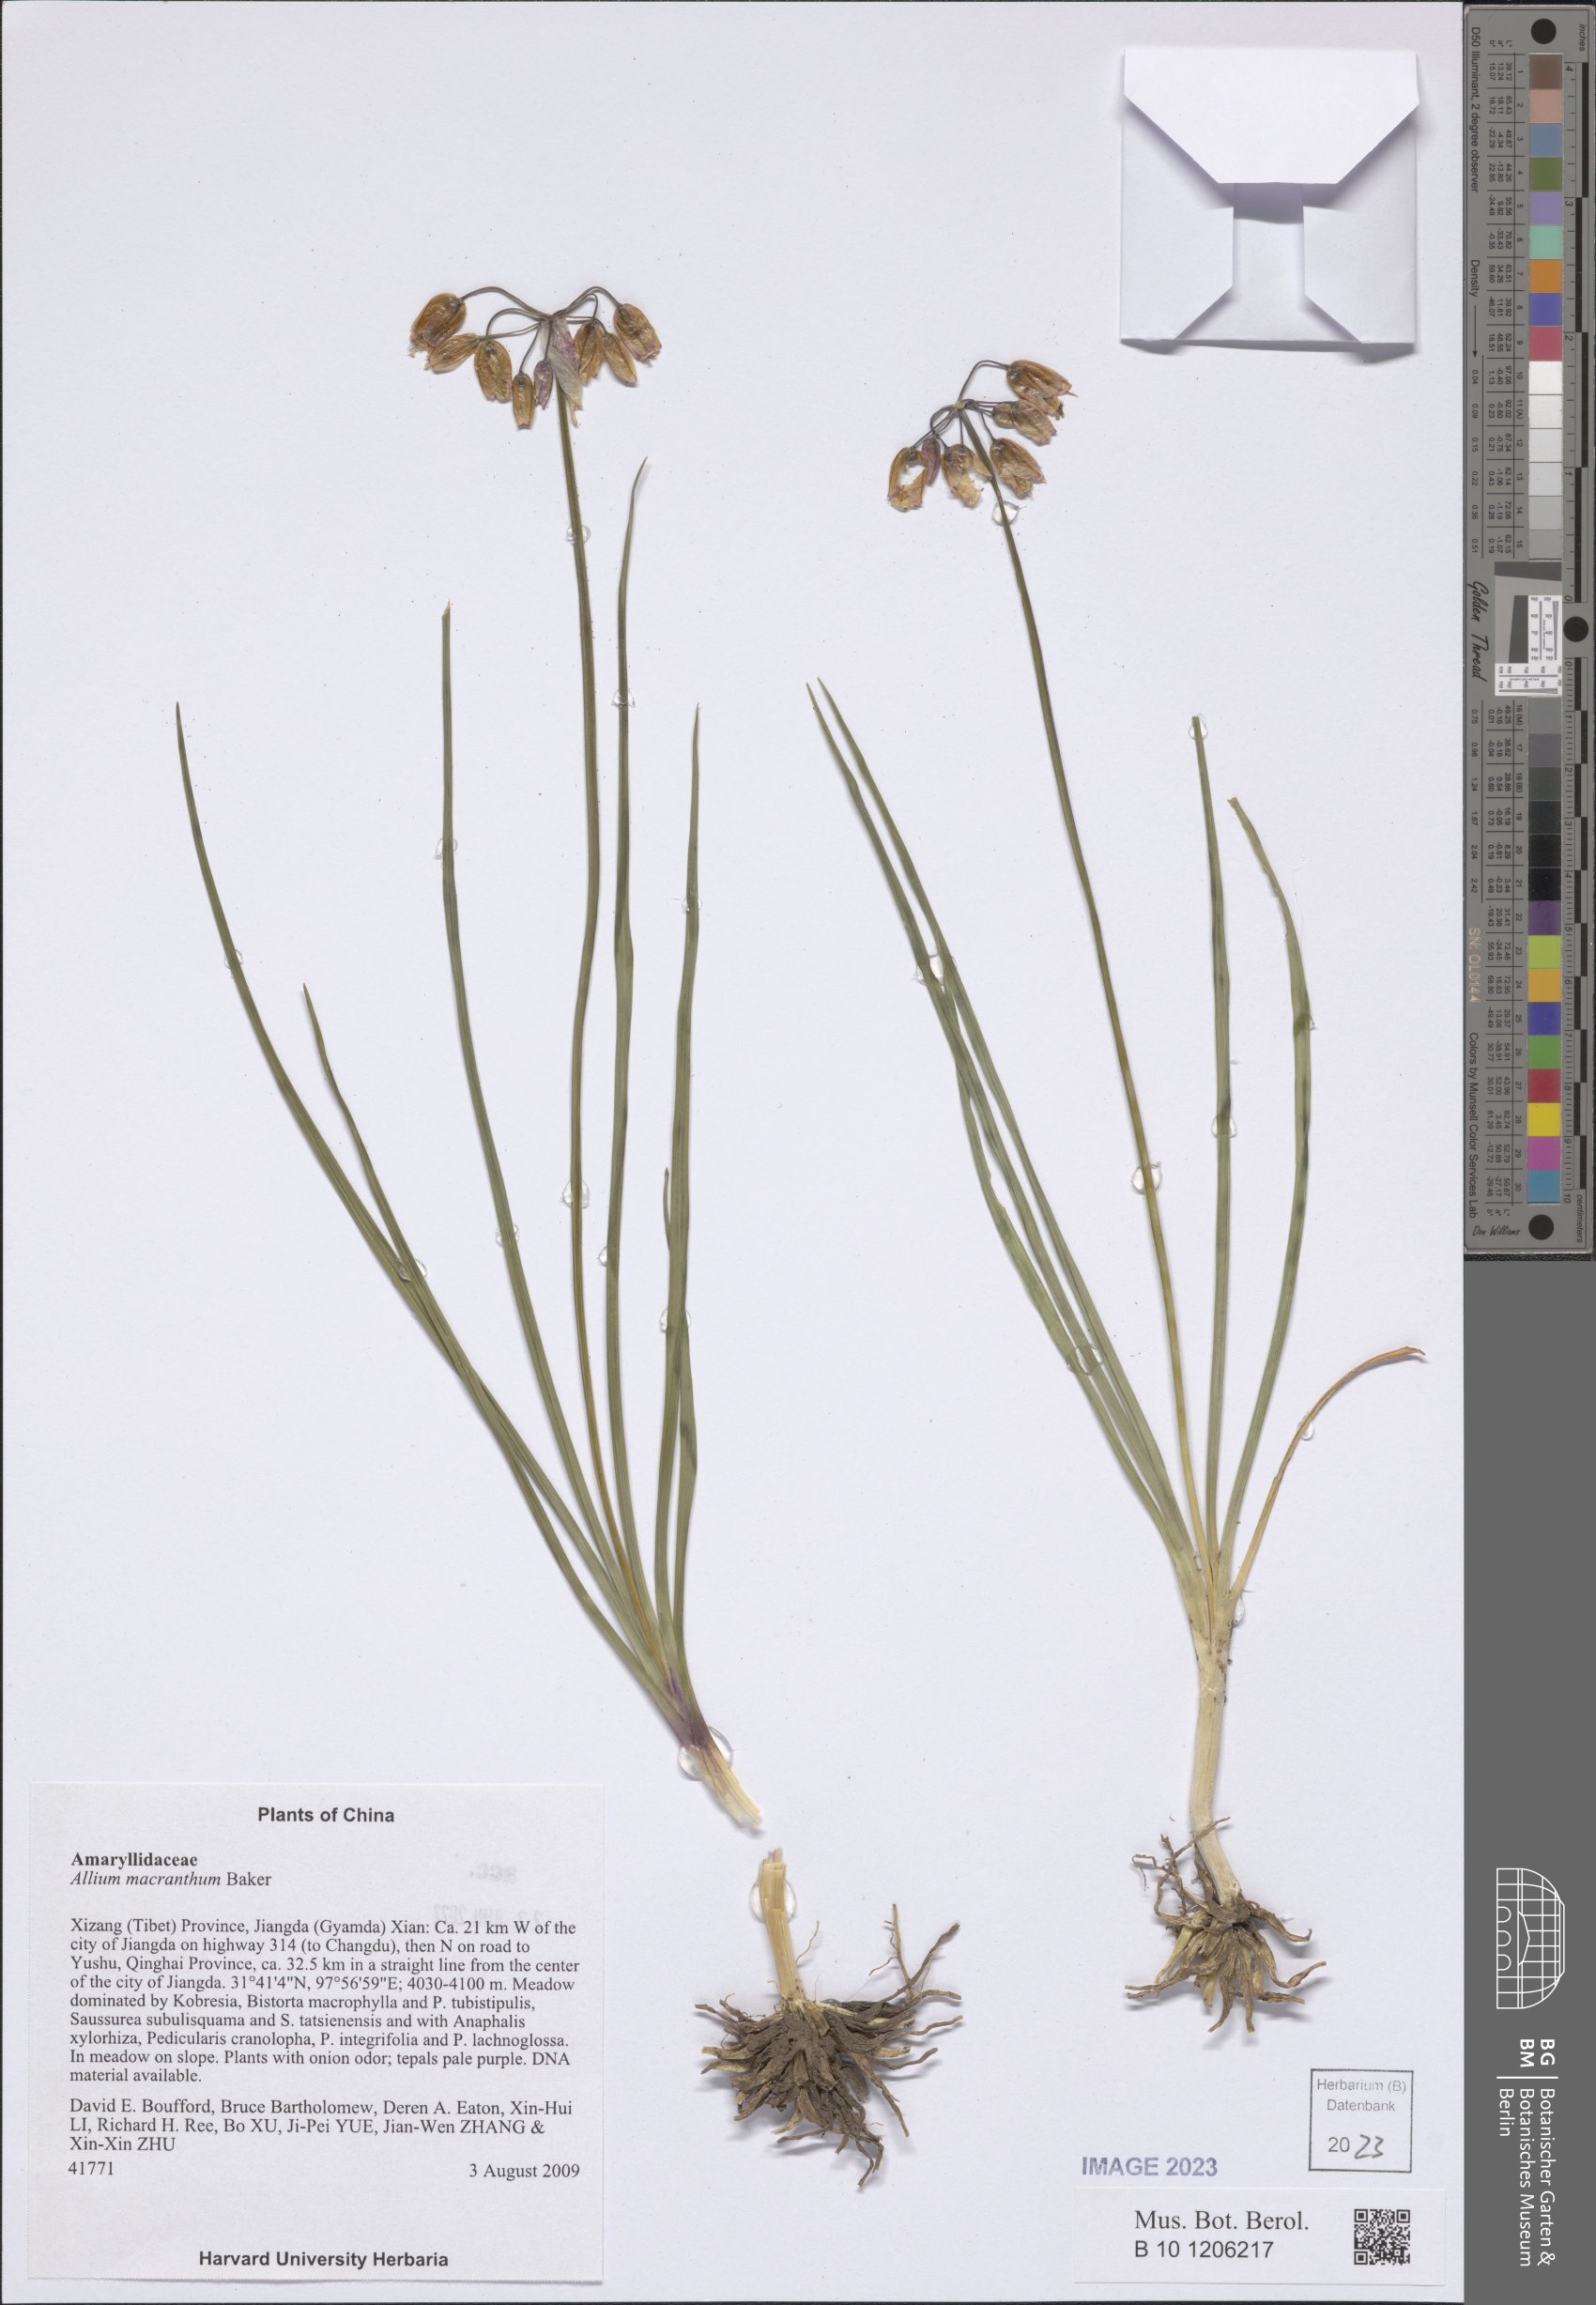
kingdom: Plantae
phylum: Tracheophyta
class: Liliopsida
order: Asparagales
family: Amaryllidaceae
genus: Allium
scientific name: Allium macranthum
